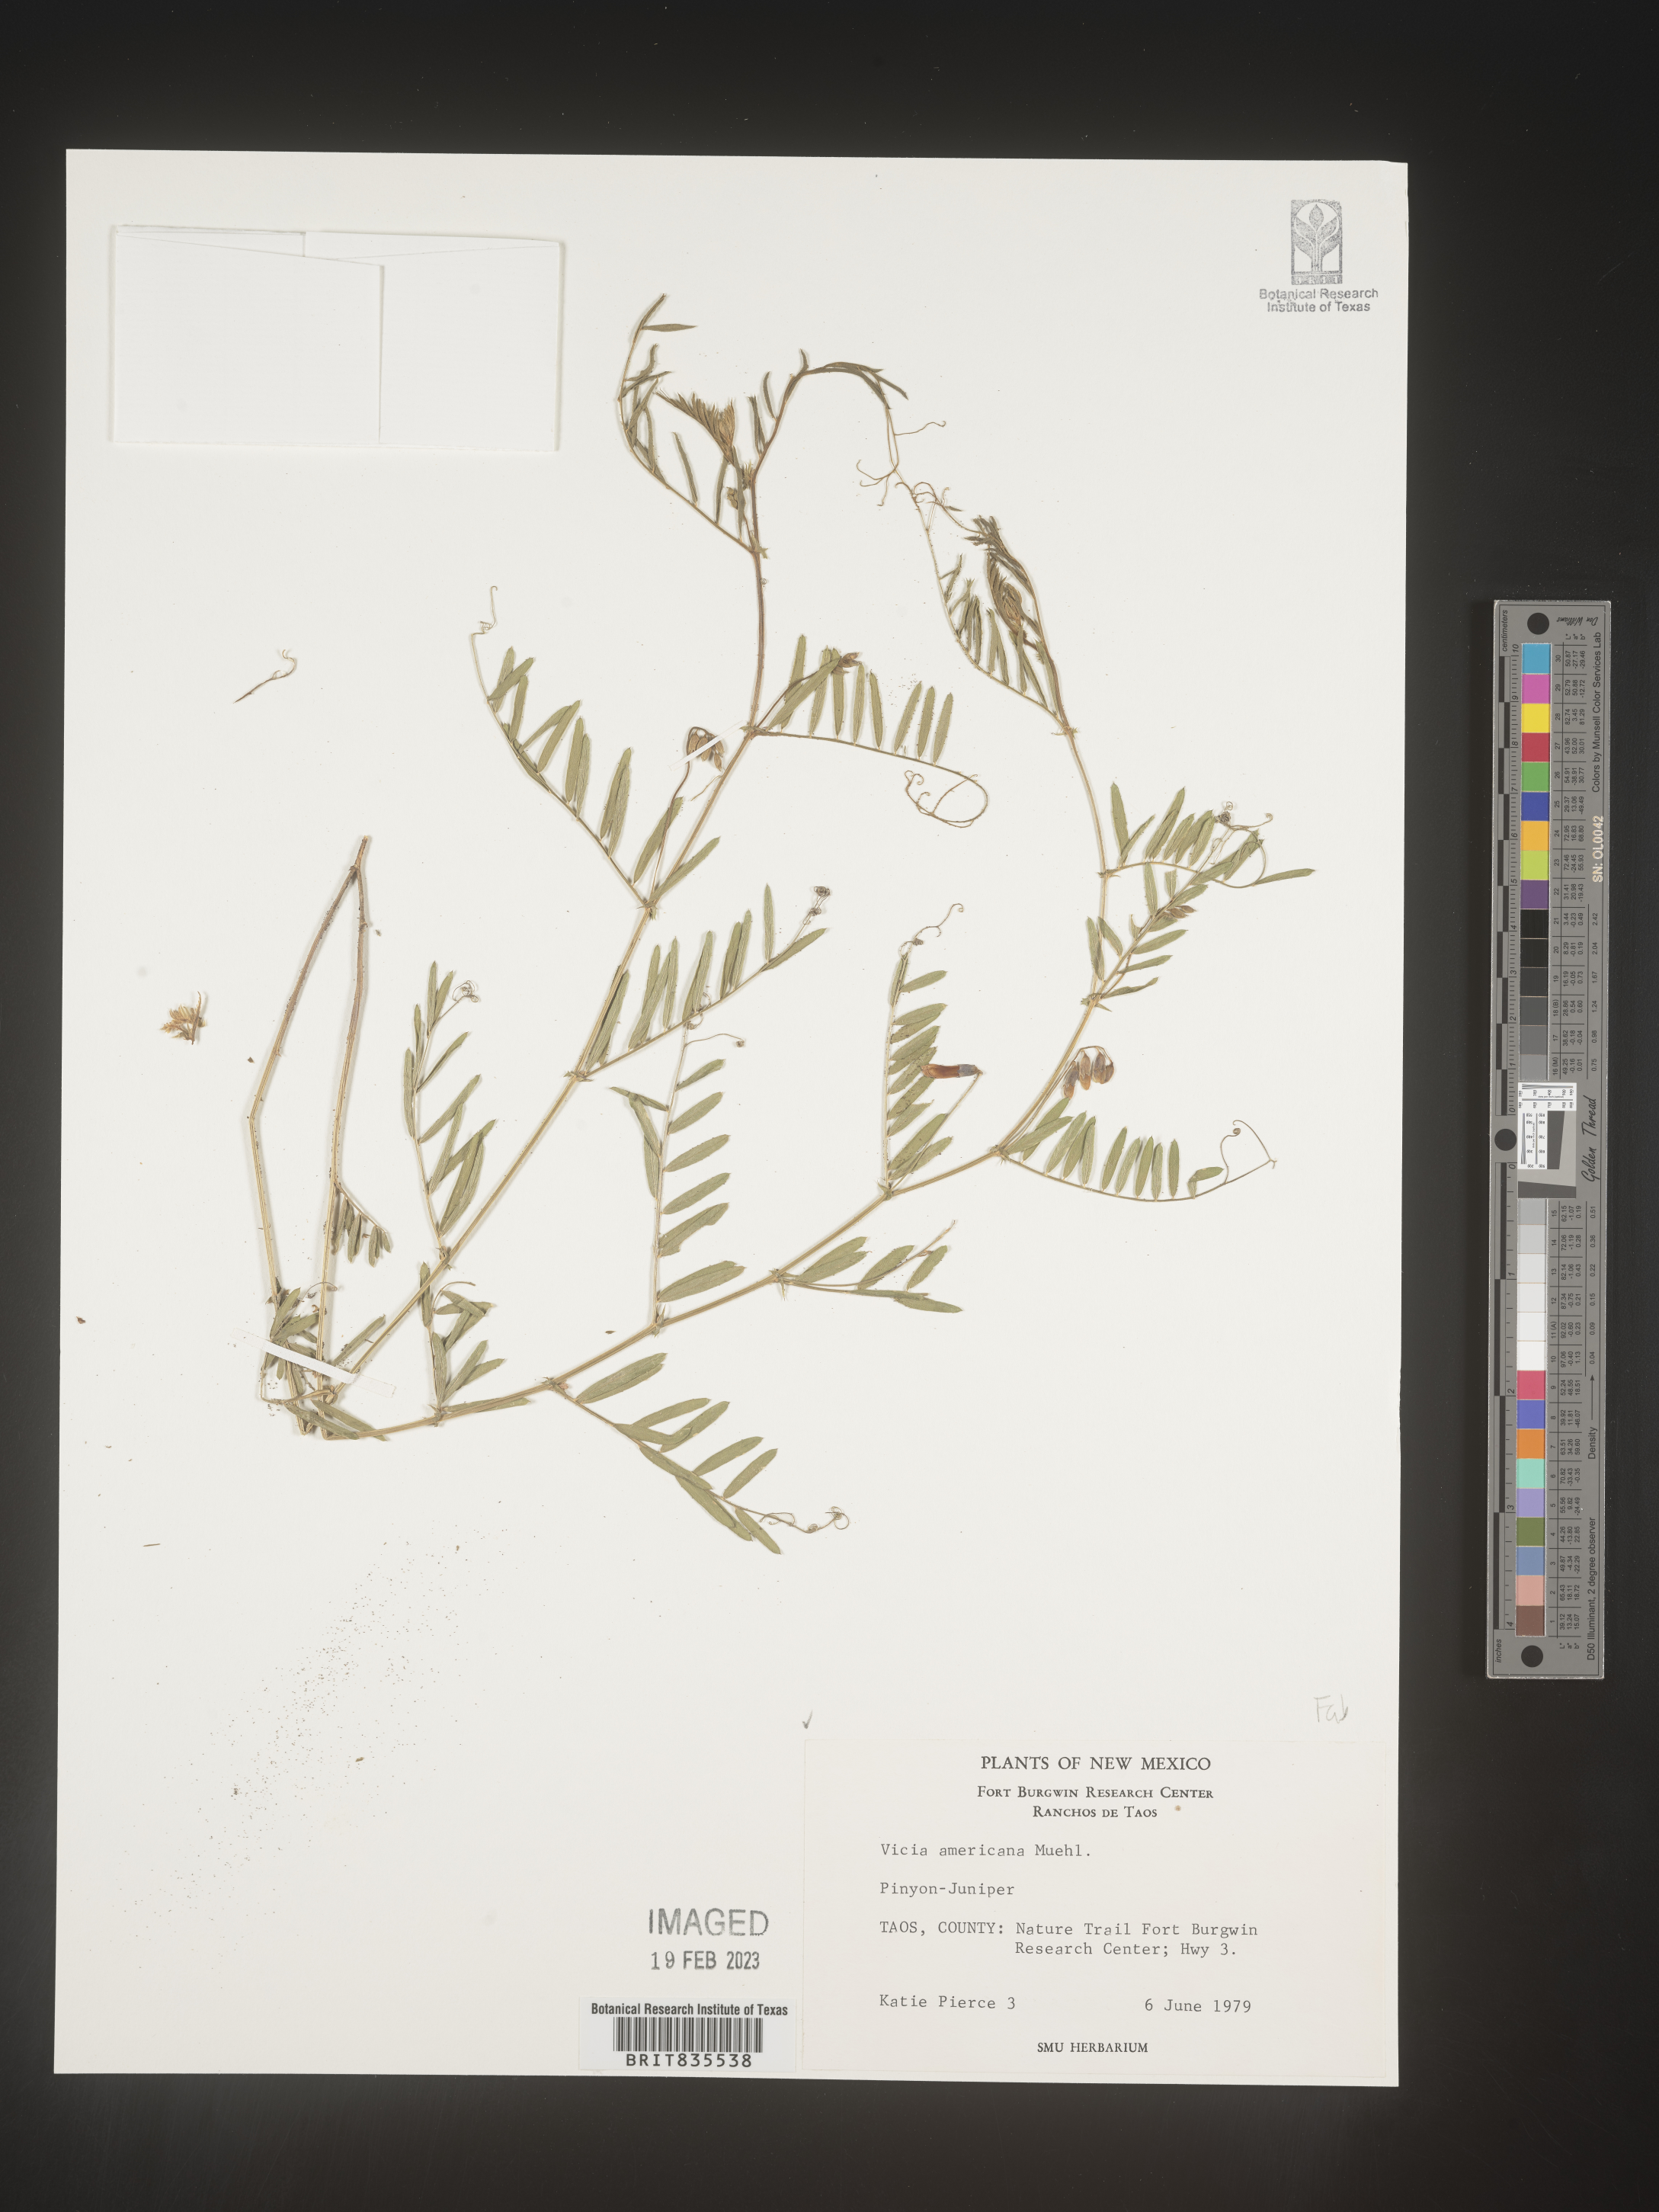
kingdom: Plantae
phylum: Tracheophyta
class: Magnoliopsida
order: Fabales
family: Fabaceae
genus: Vicia
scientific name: Vicia americana
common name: American vetch
